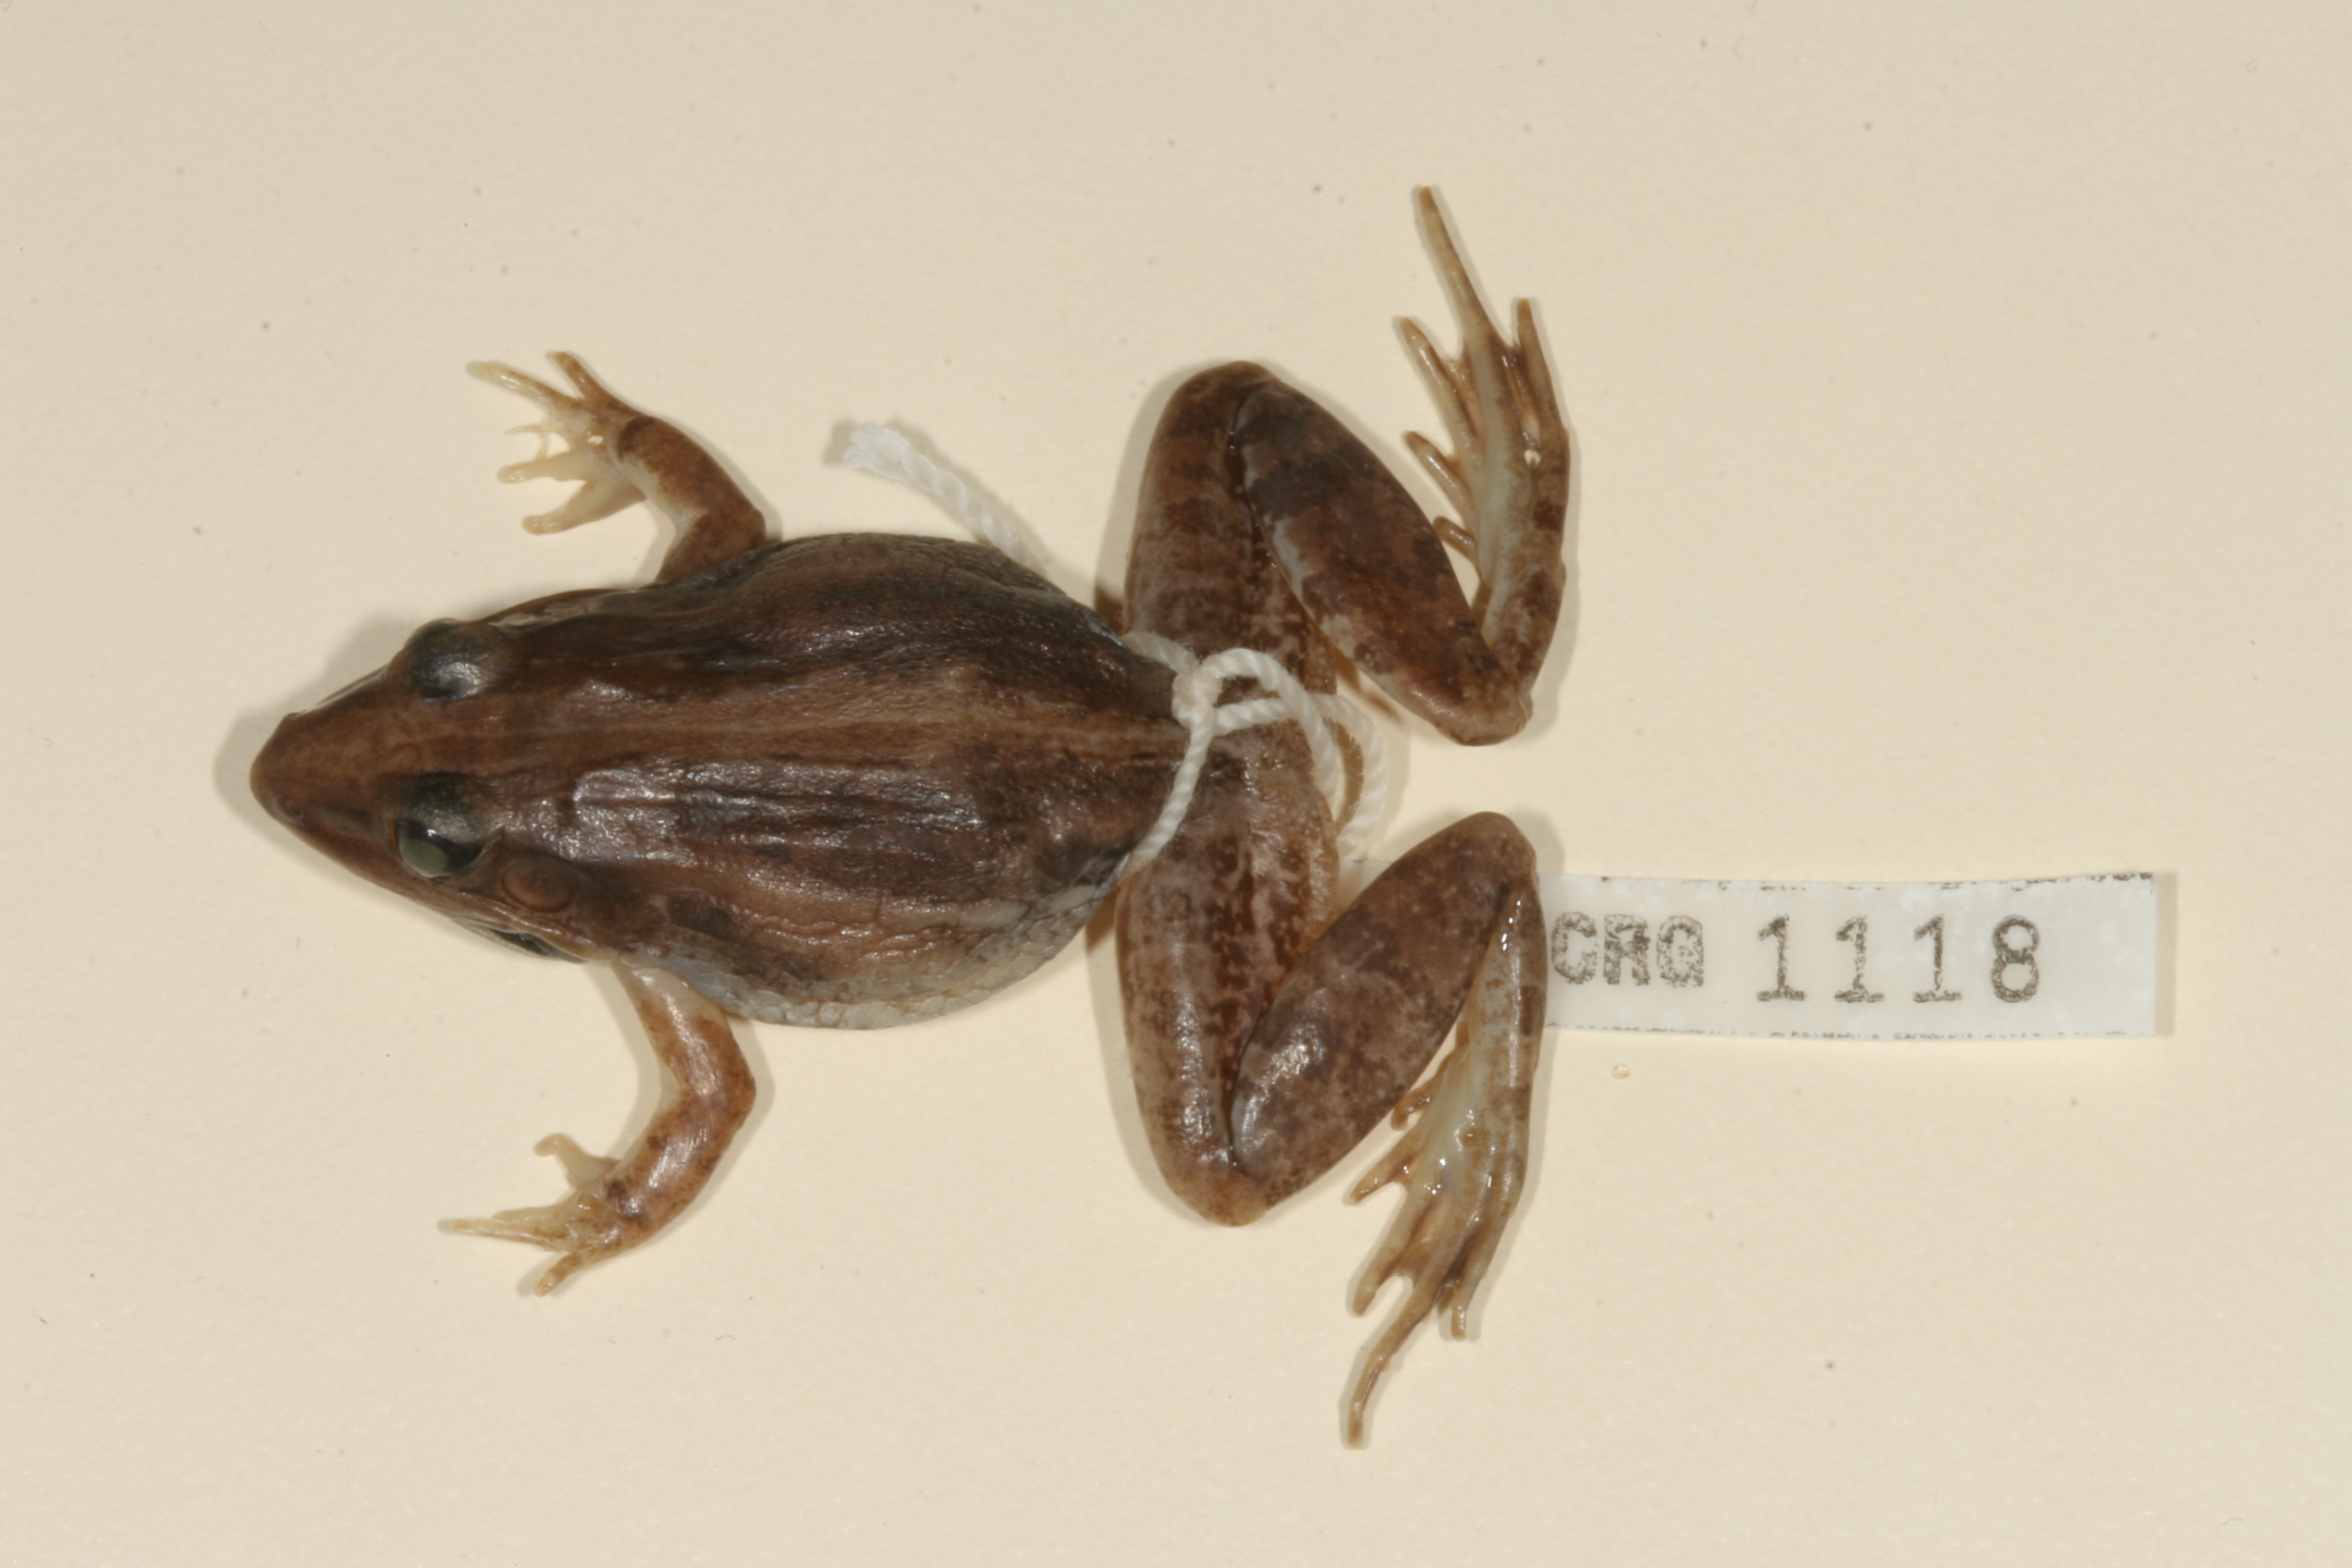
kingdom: Animalia
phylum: Chordata
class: Amphibia
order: Anura
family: Ptychadenidae
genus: Ptychadena
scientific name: Ptychadena mossambica
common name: Mozambique ridged frog
